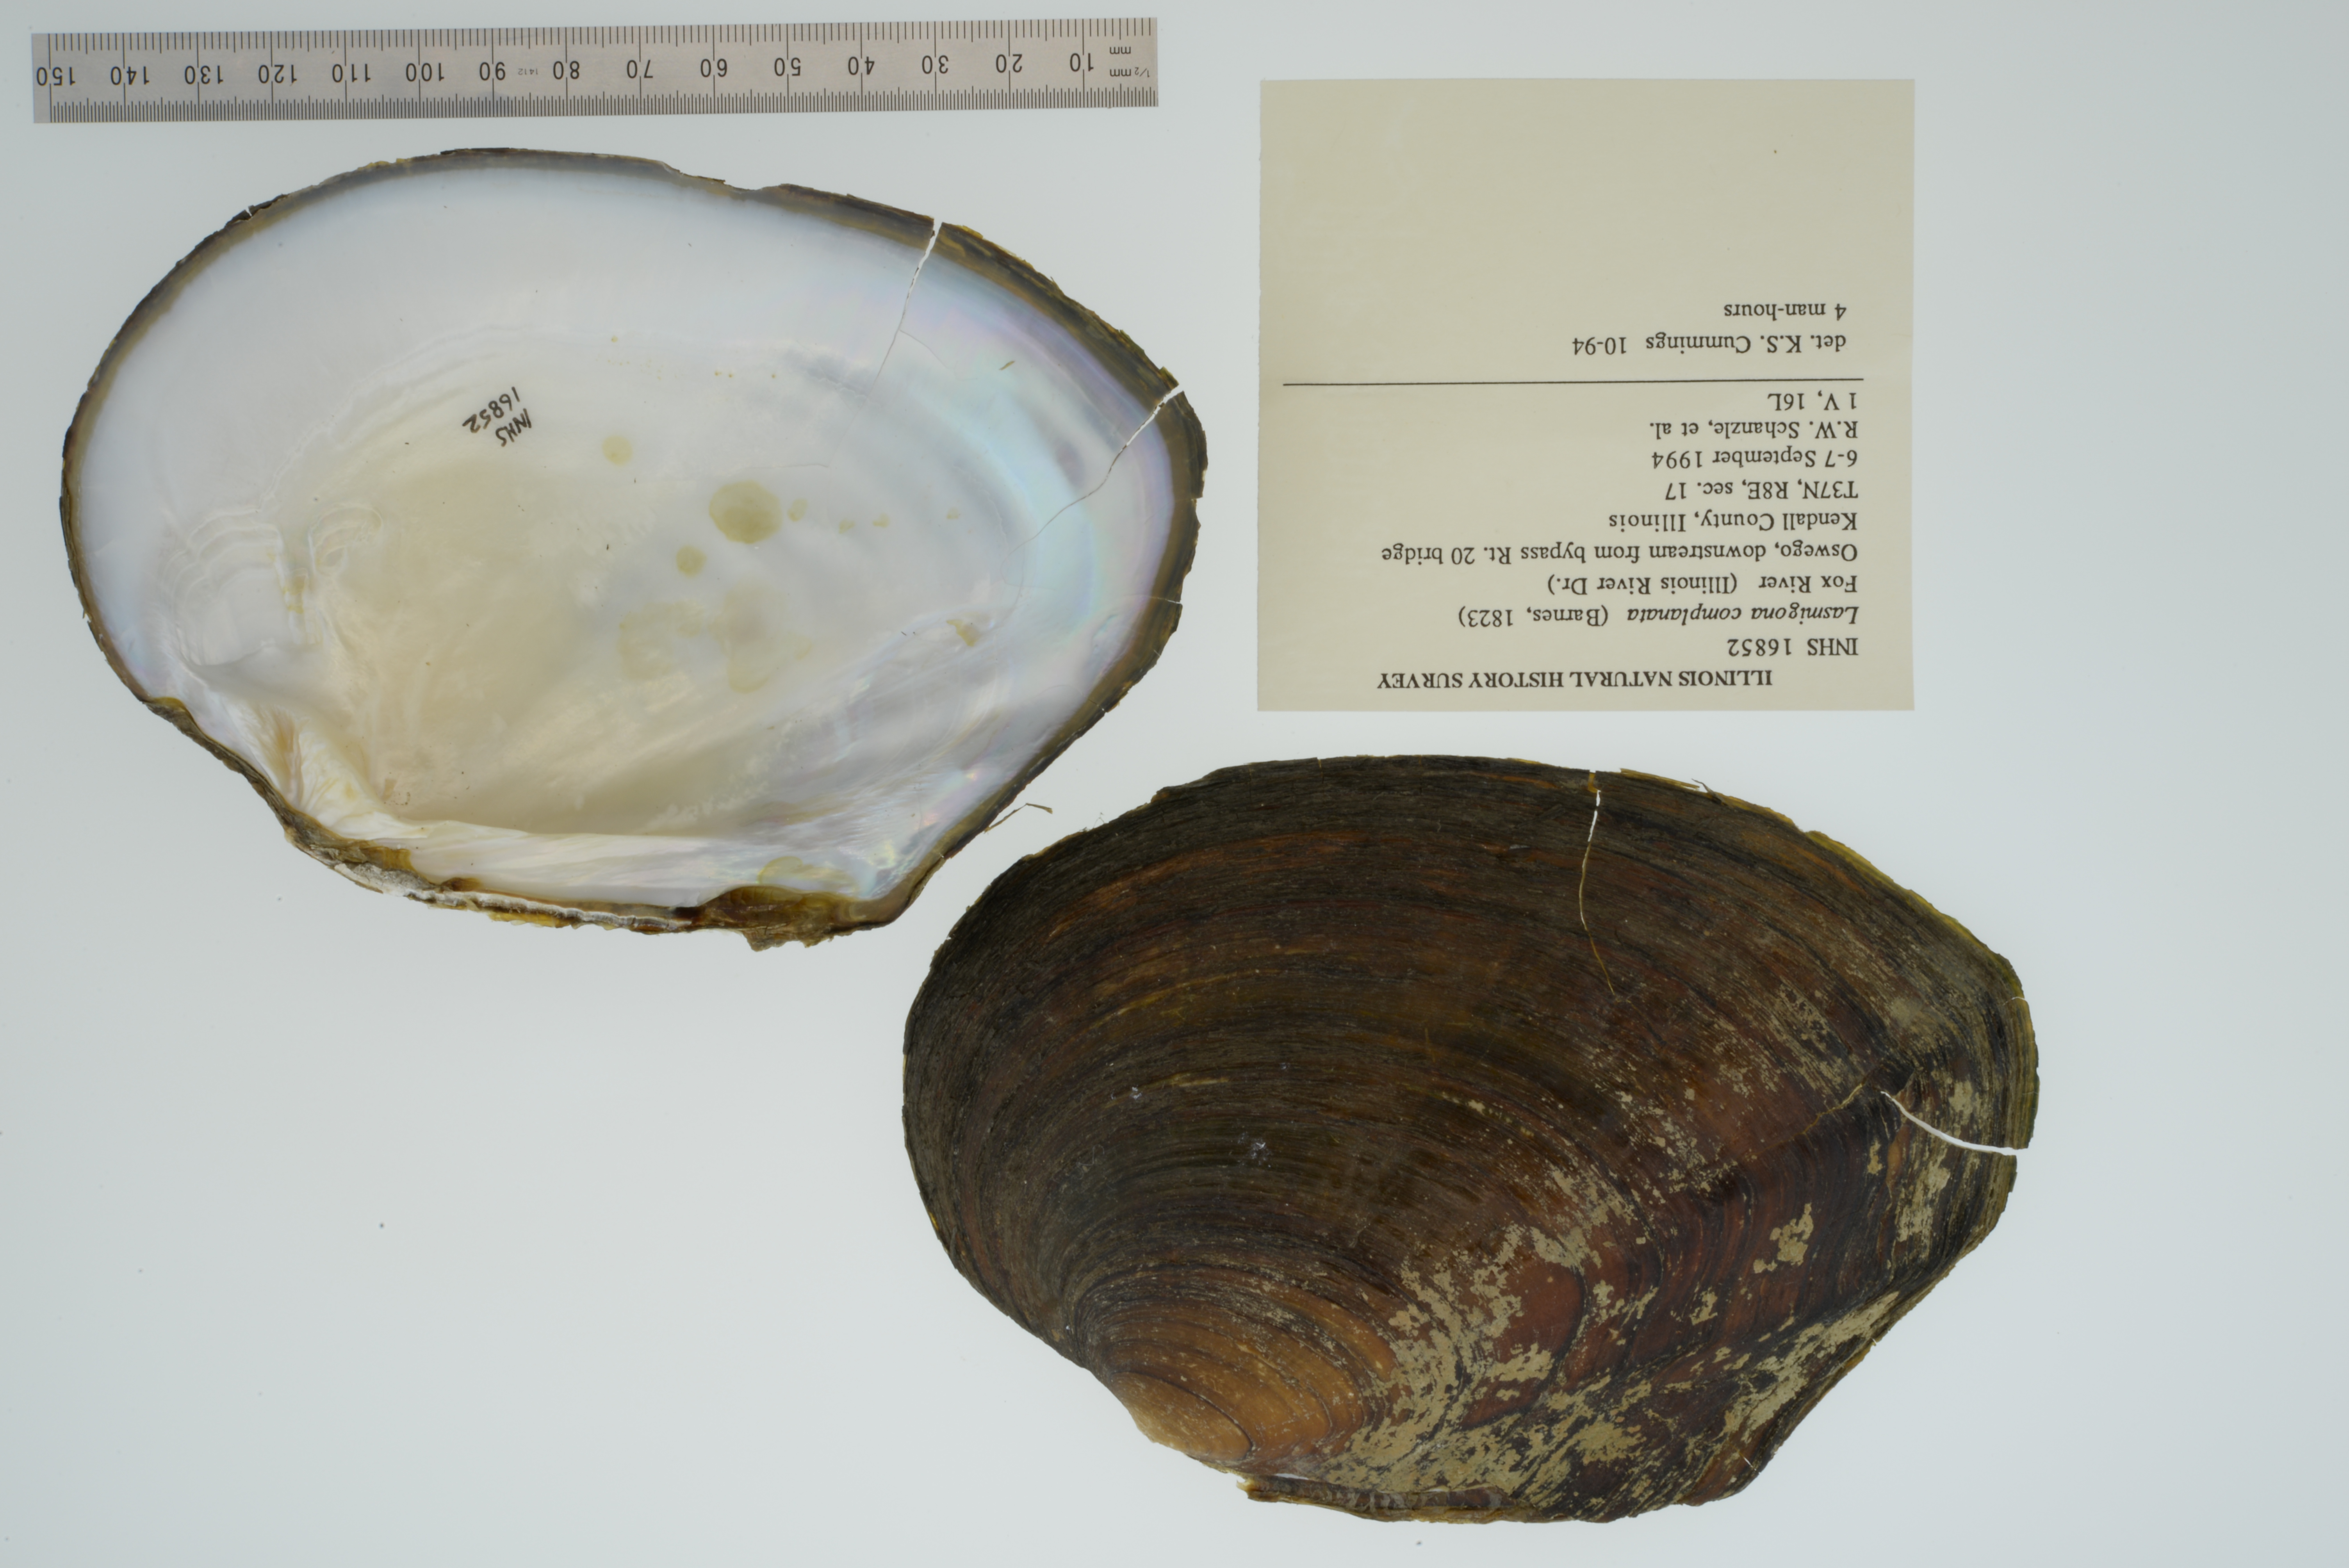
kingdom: Animalia
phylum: Mollusca
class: Bivalvia
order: Unionida
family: Unionidae
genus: Lasmigona
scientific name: Lasmigona complanata
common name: White heelsplitter
